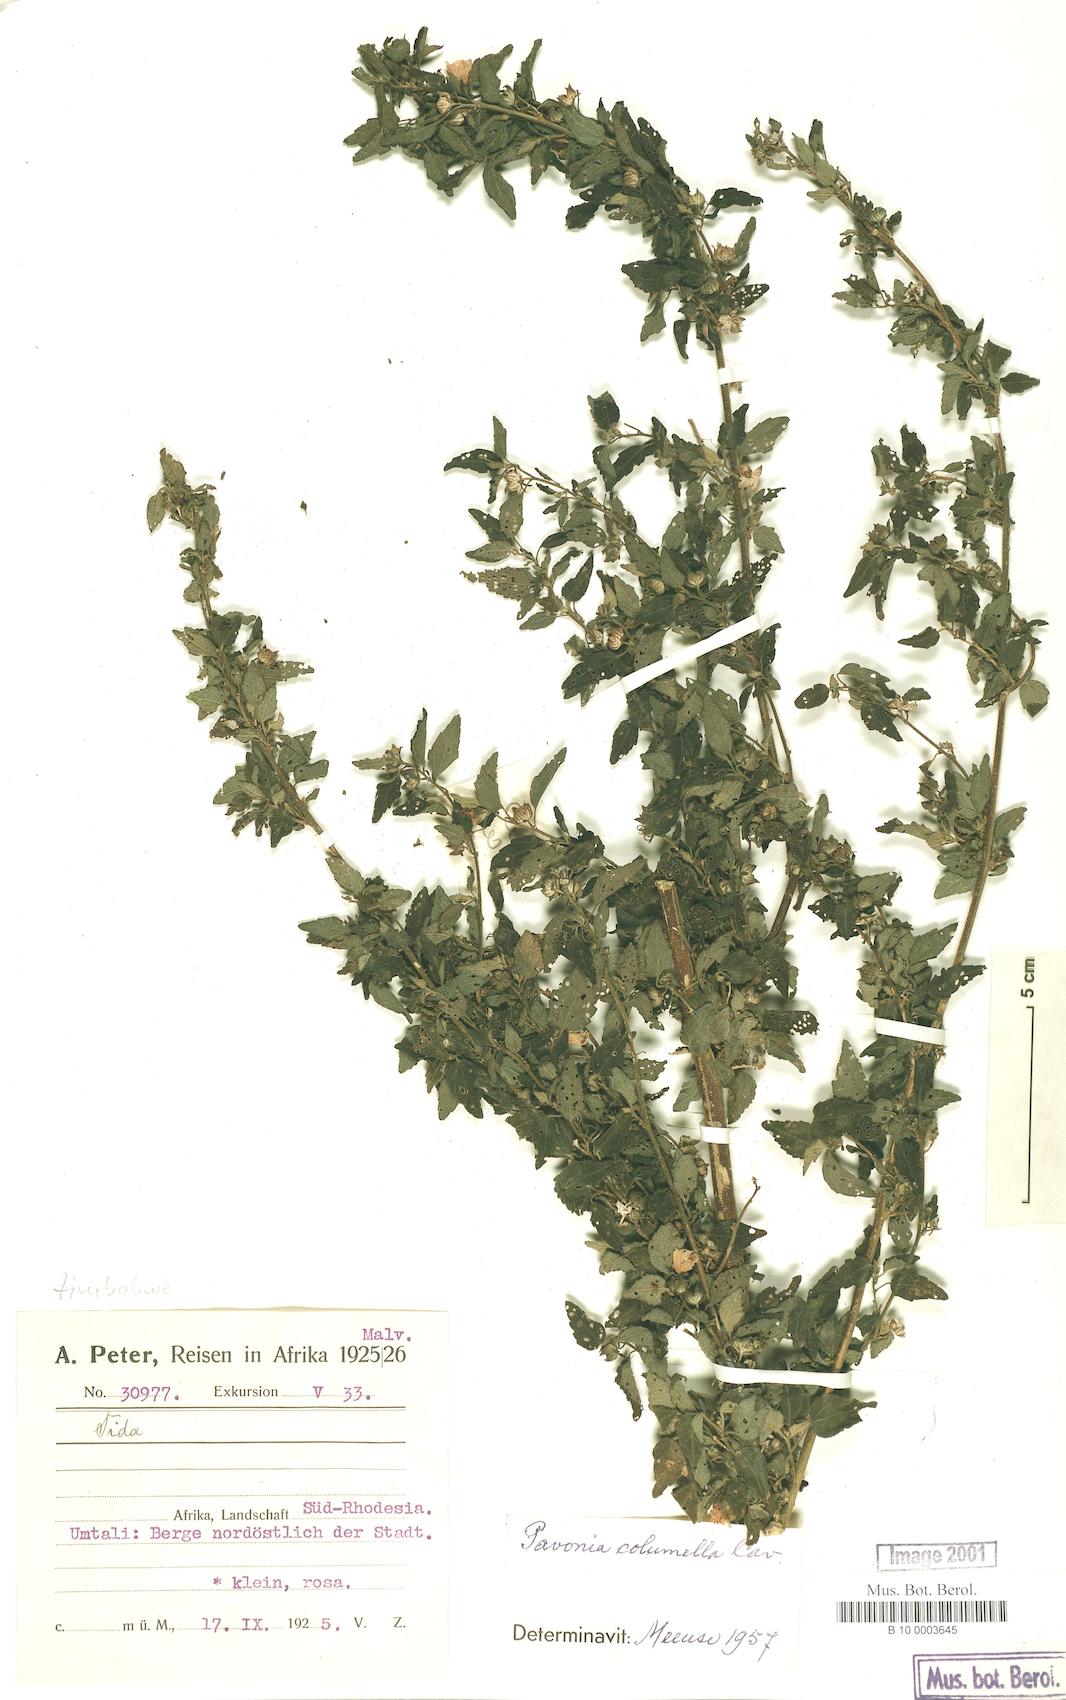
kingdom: Plantae
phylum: Tracheophyta
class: Magnoliopsida
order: Malvales
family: Malvaceae
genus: Pavonia
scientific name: Pavonia columella
